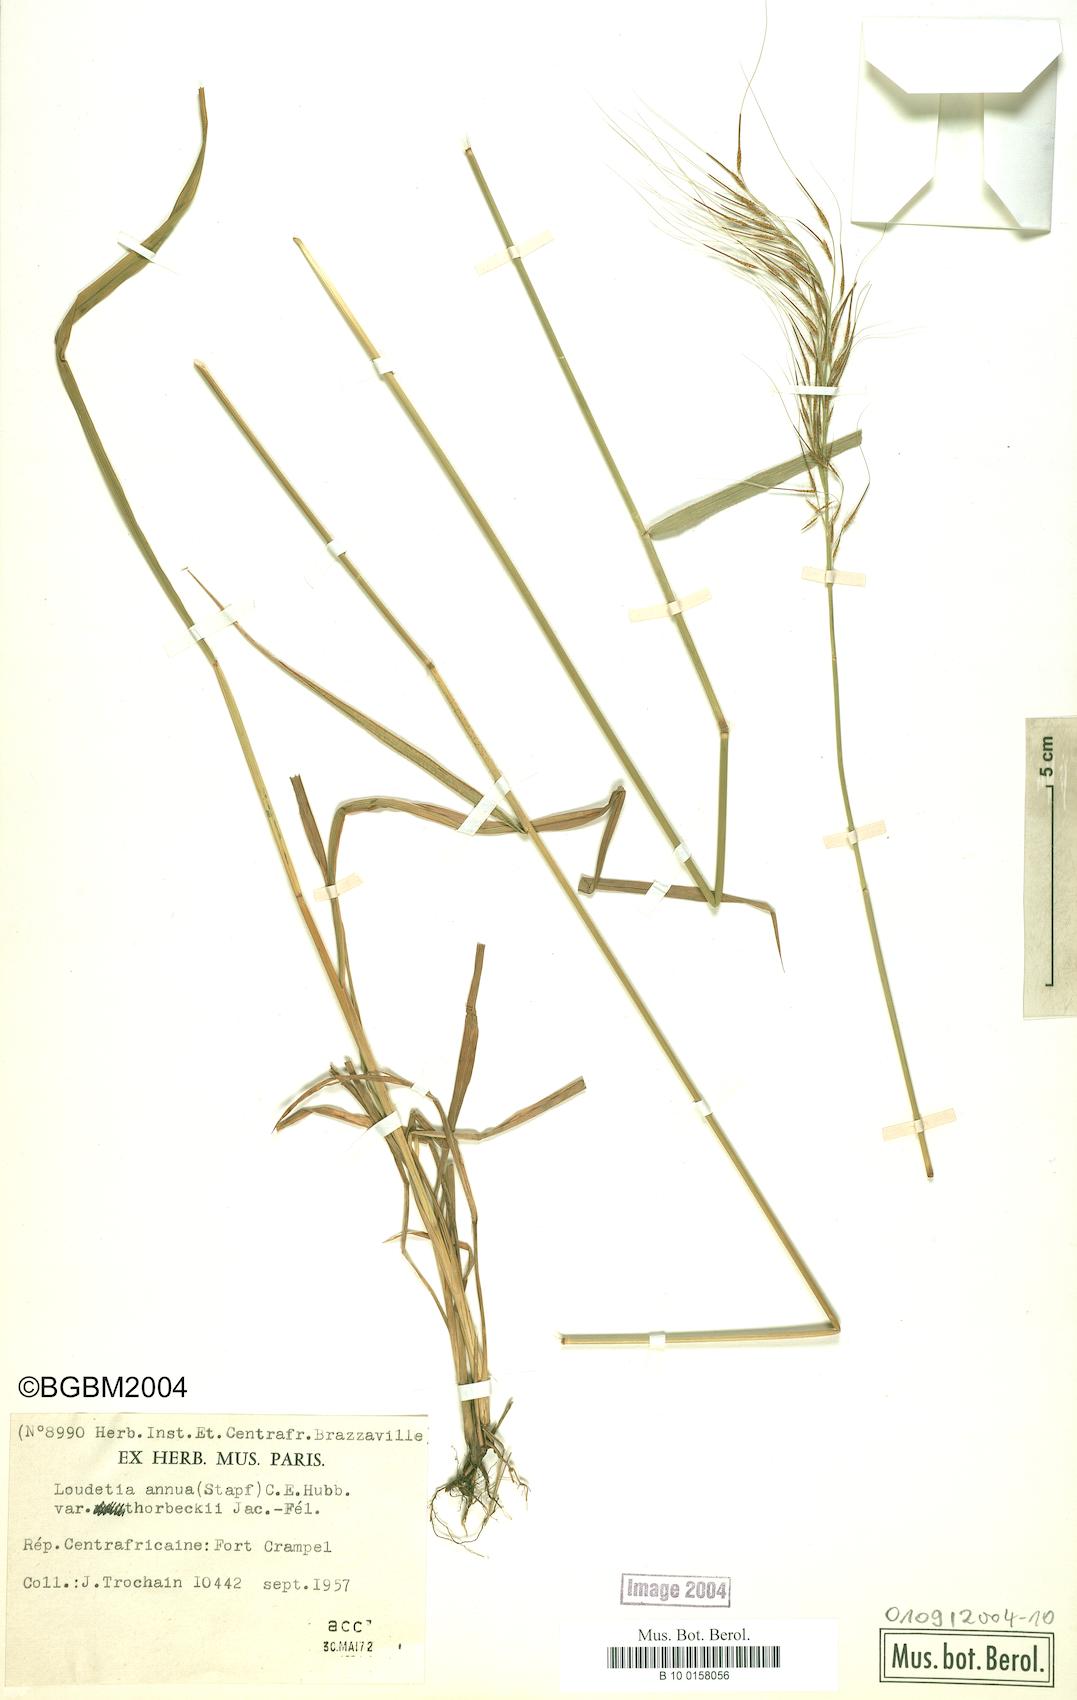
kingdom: Plantae
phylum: Tracheophyta
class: Liliopsida
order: Poales
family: Poaceae
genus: Loudetia
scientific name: Loudetia annua
